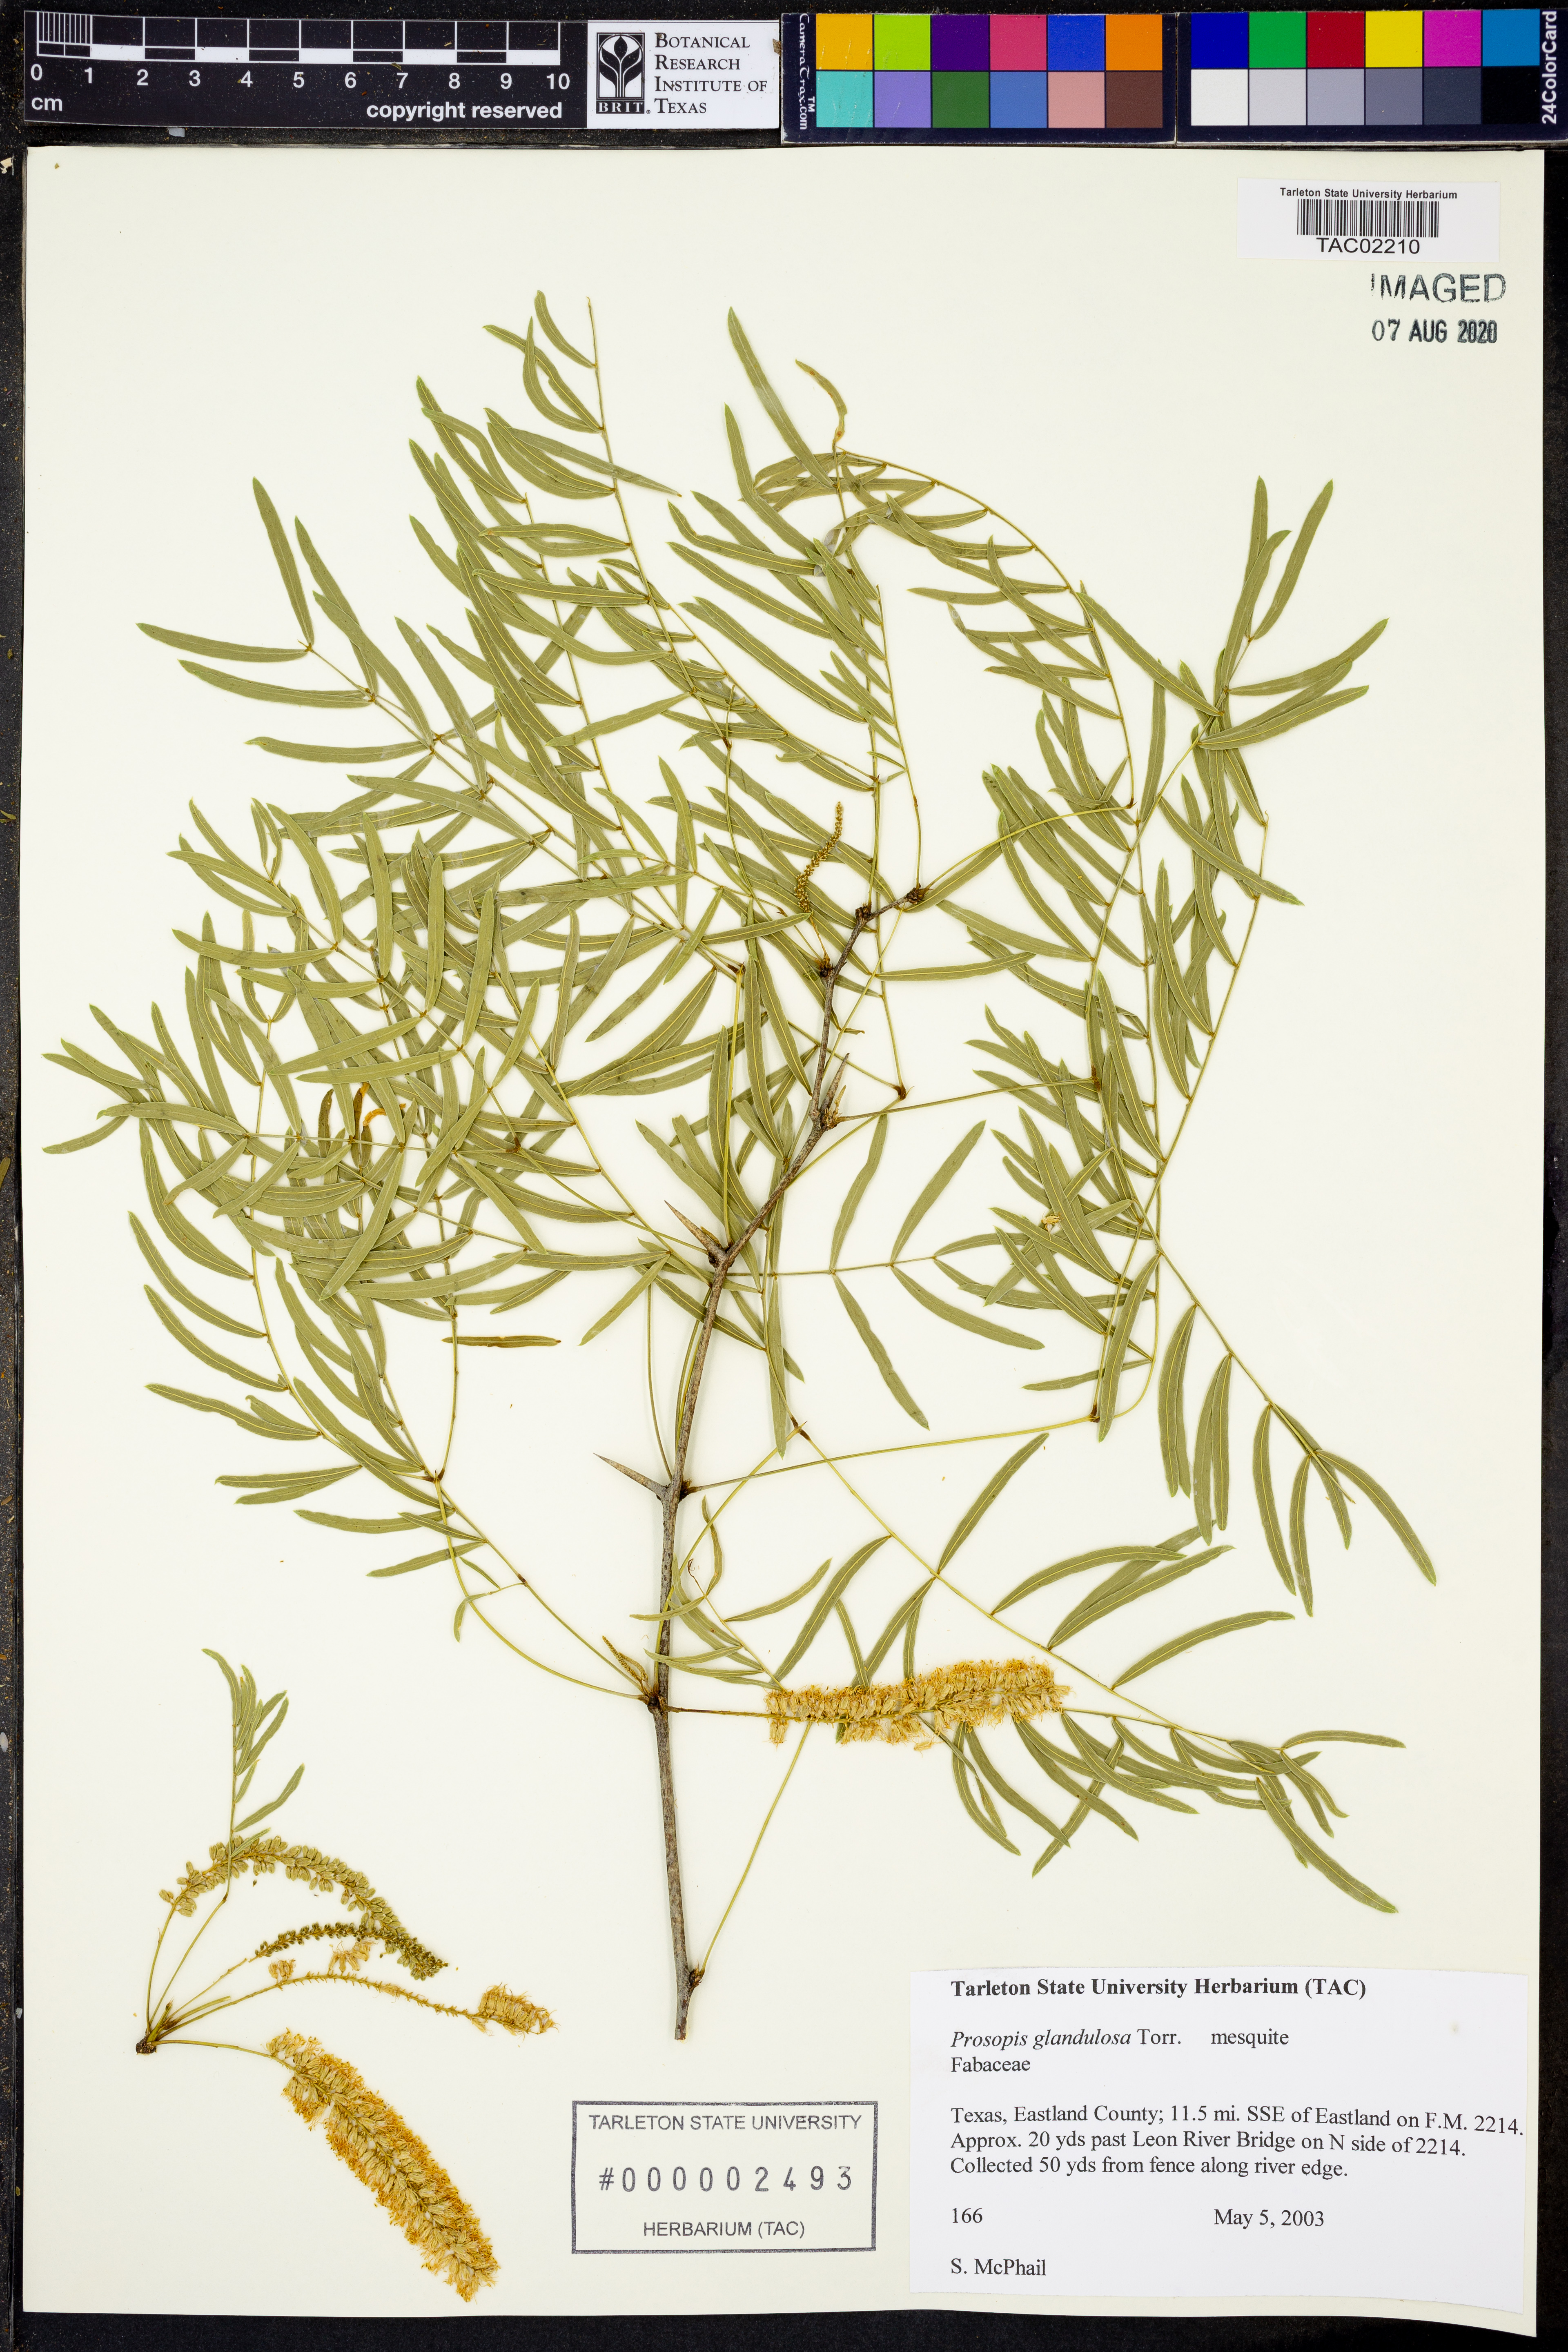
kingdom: Plantae
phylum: Tracheophyta
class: Magnoliopsida
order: Fabales
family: Fabaceae
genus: Prosopis
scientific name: Prosopis glandulosa
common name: Honey mesquite
